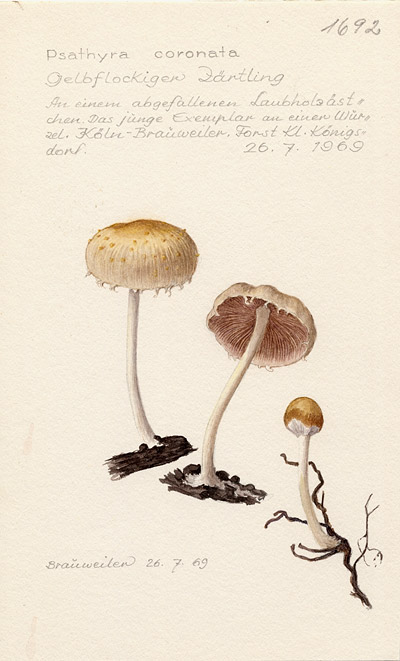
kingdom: Fungi
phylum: Basidiomycota
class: Agaricomycetes
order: Agaricales
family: Psathyrellaceae
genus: Psathyrella
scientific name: Psathyrella coronata
